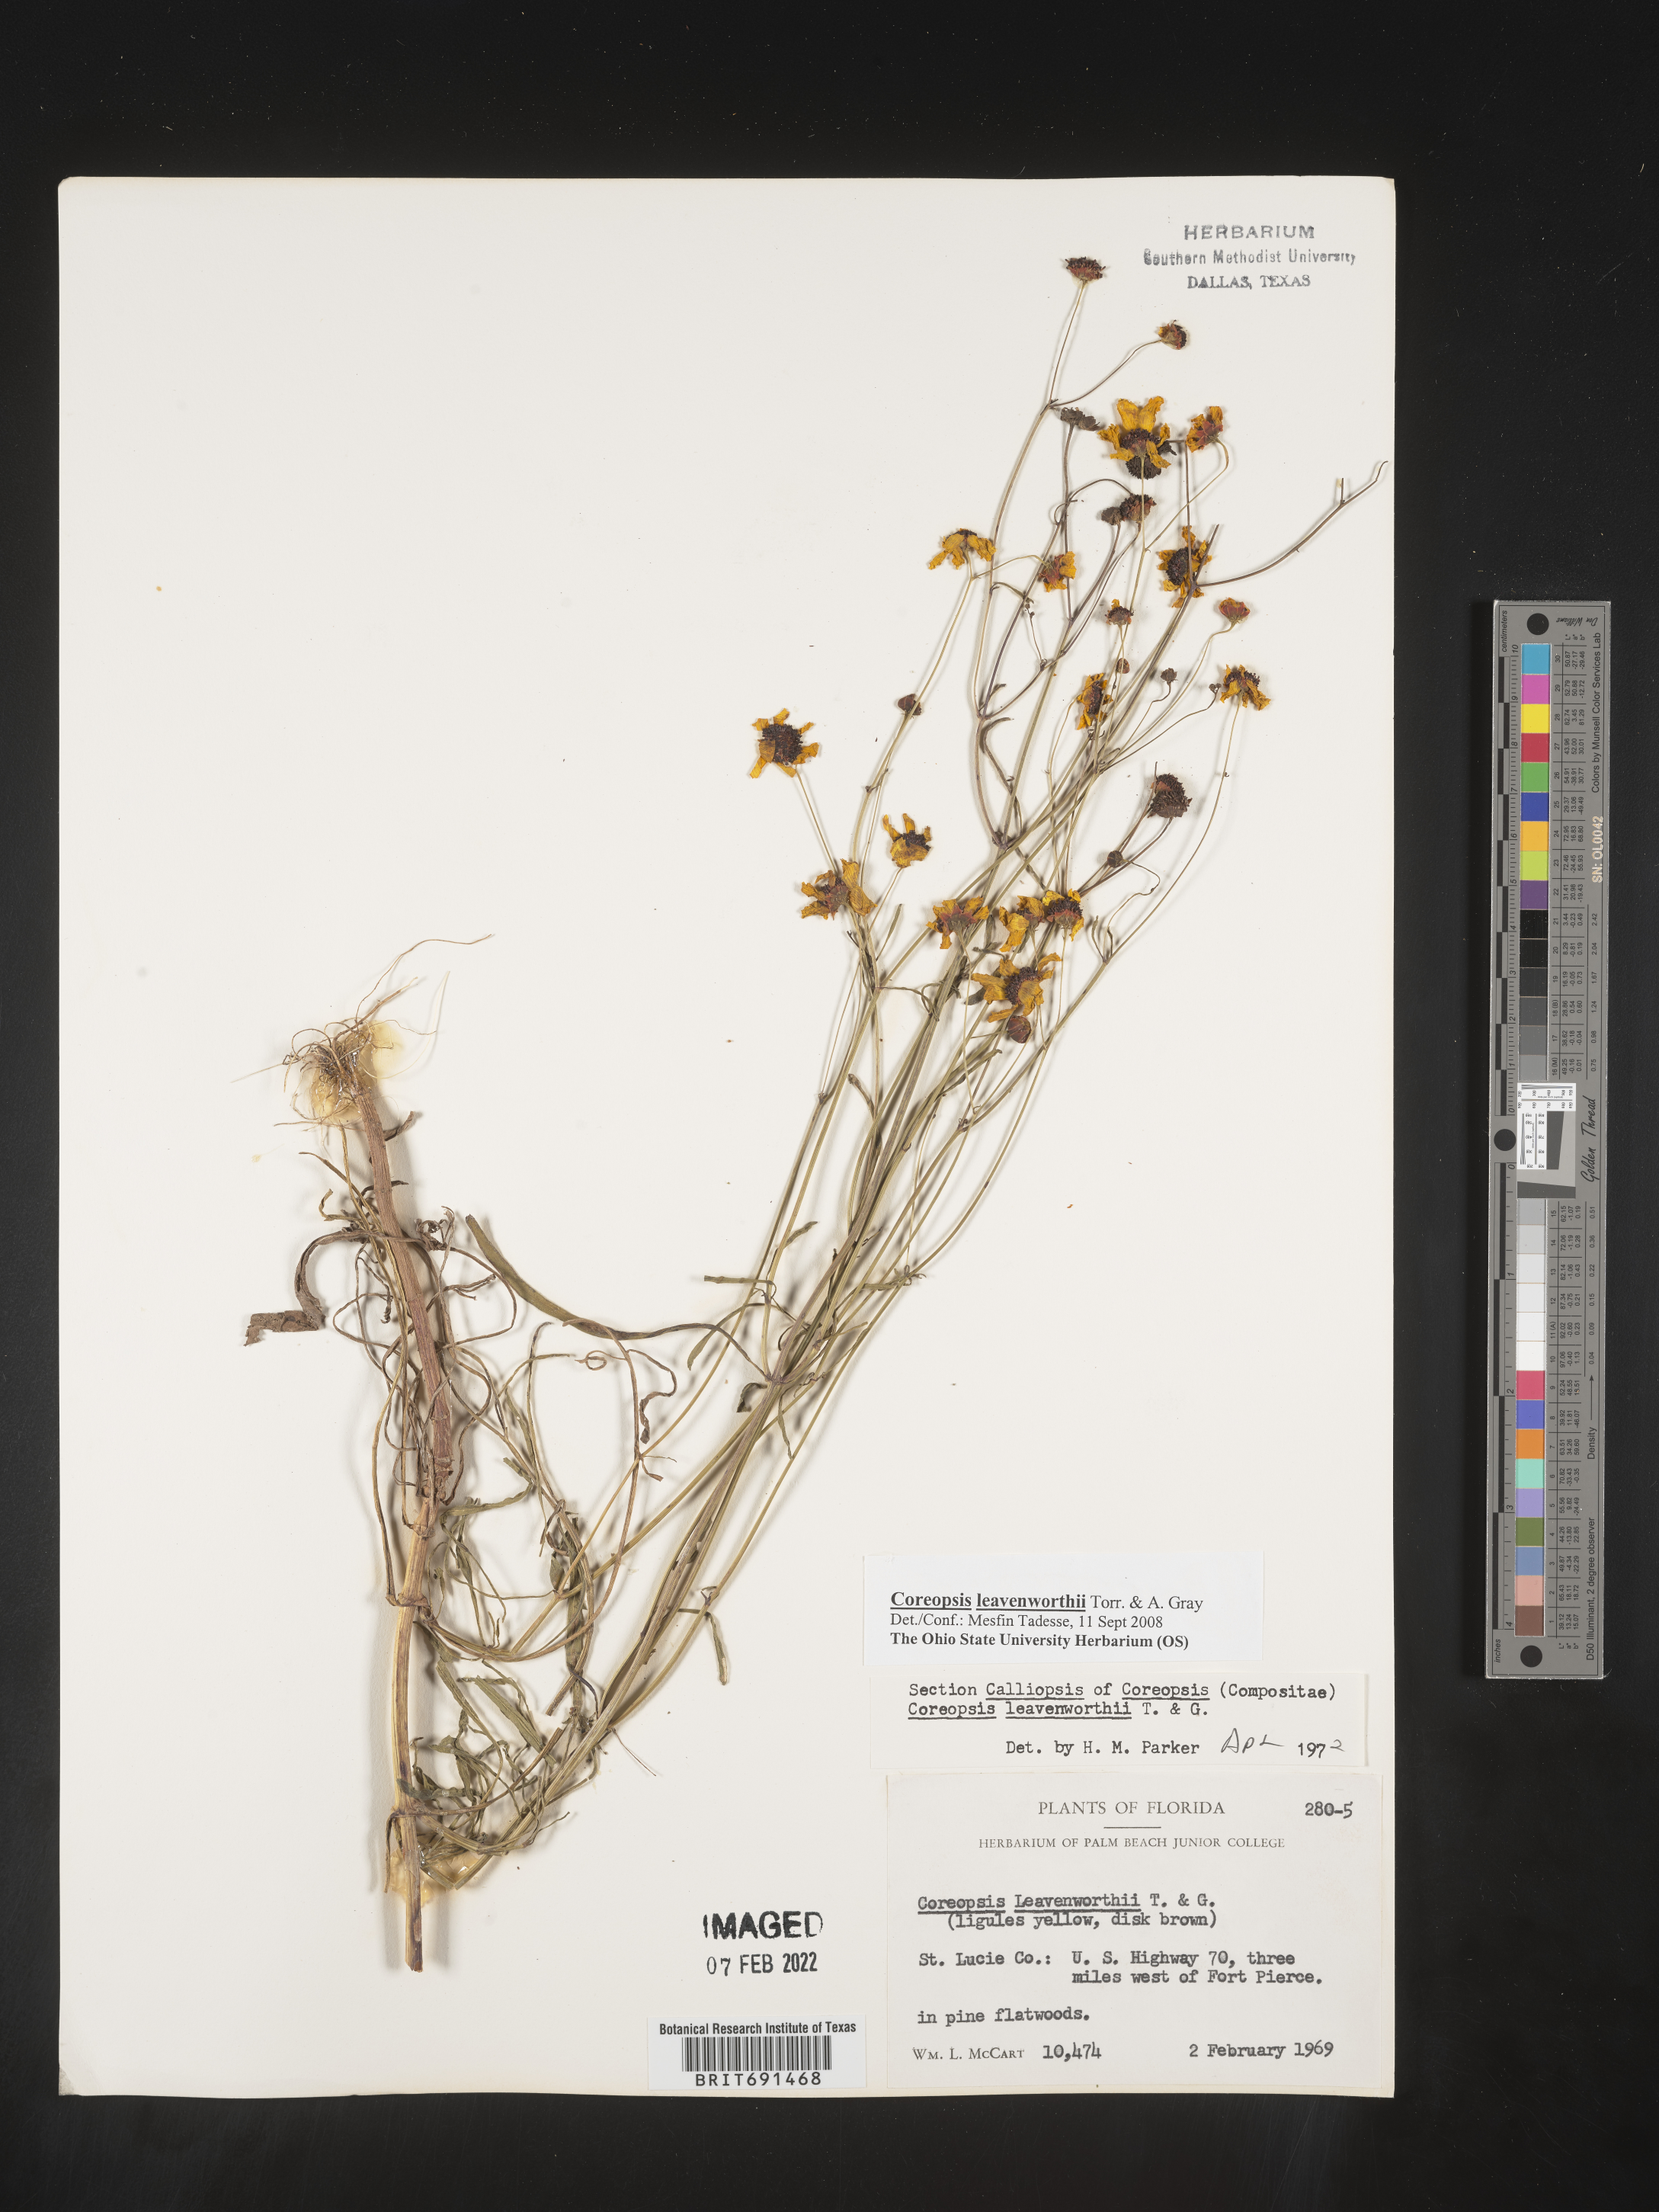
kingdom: Plantae
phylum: Tracheophyta
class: Magnoliopsida
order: Asterales
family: Asteraceae
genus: Coreopsis
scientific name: Coreopsis leavenworthii
